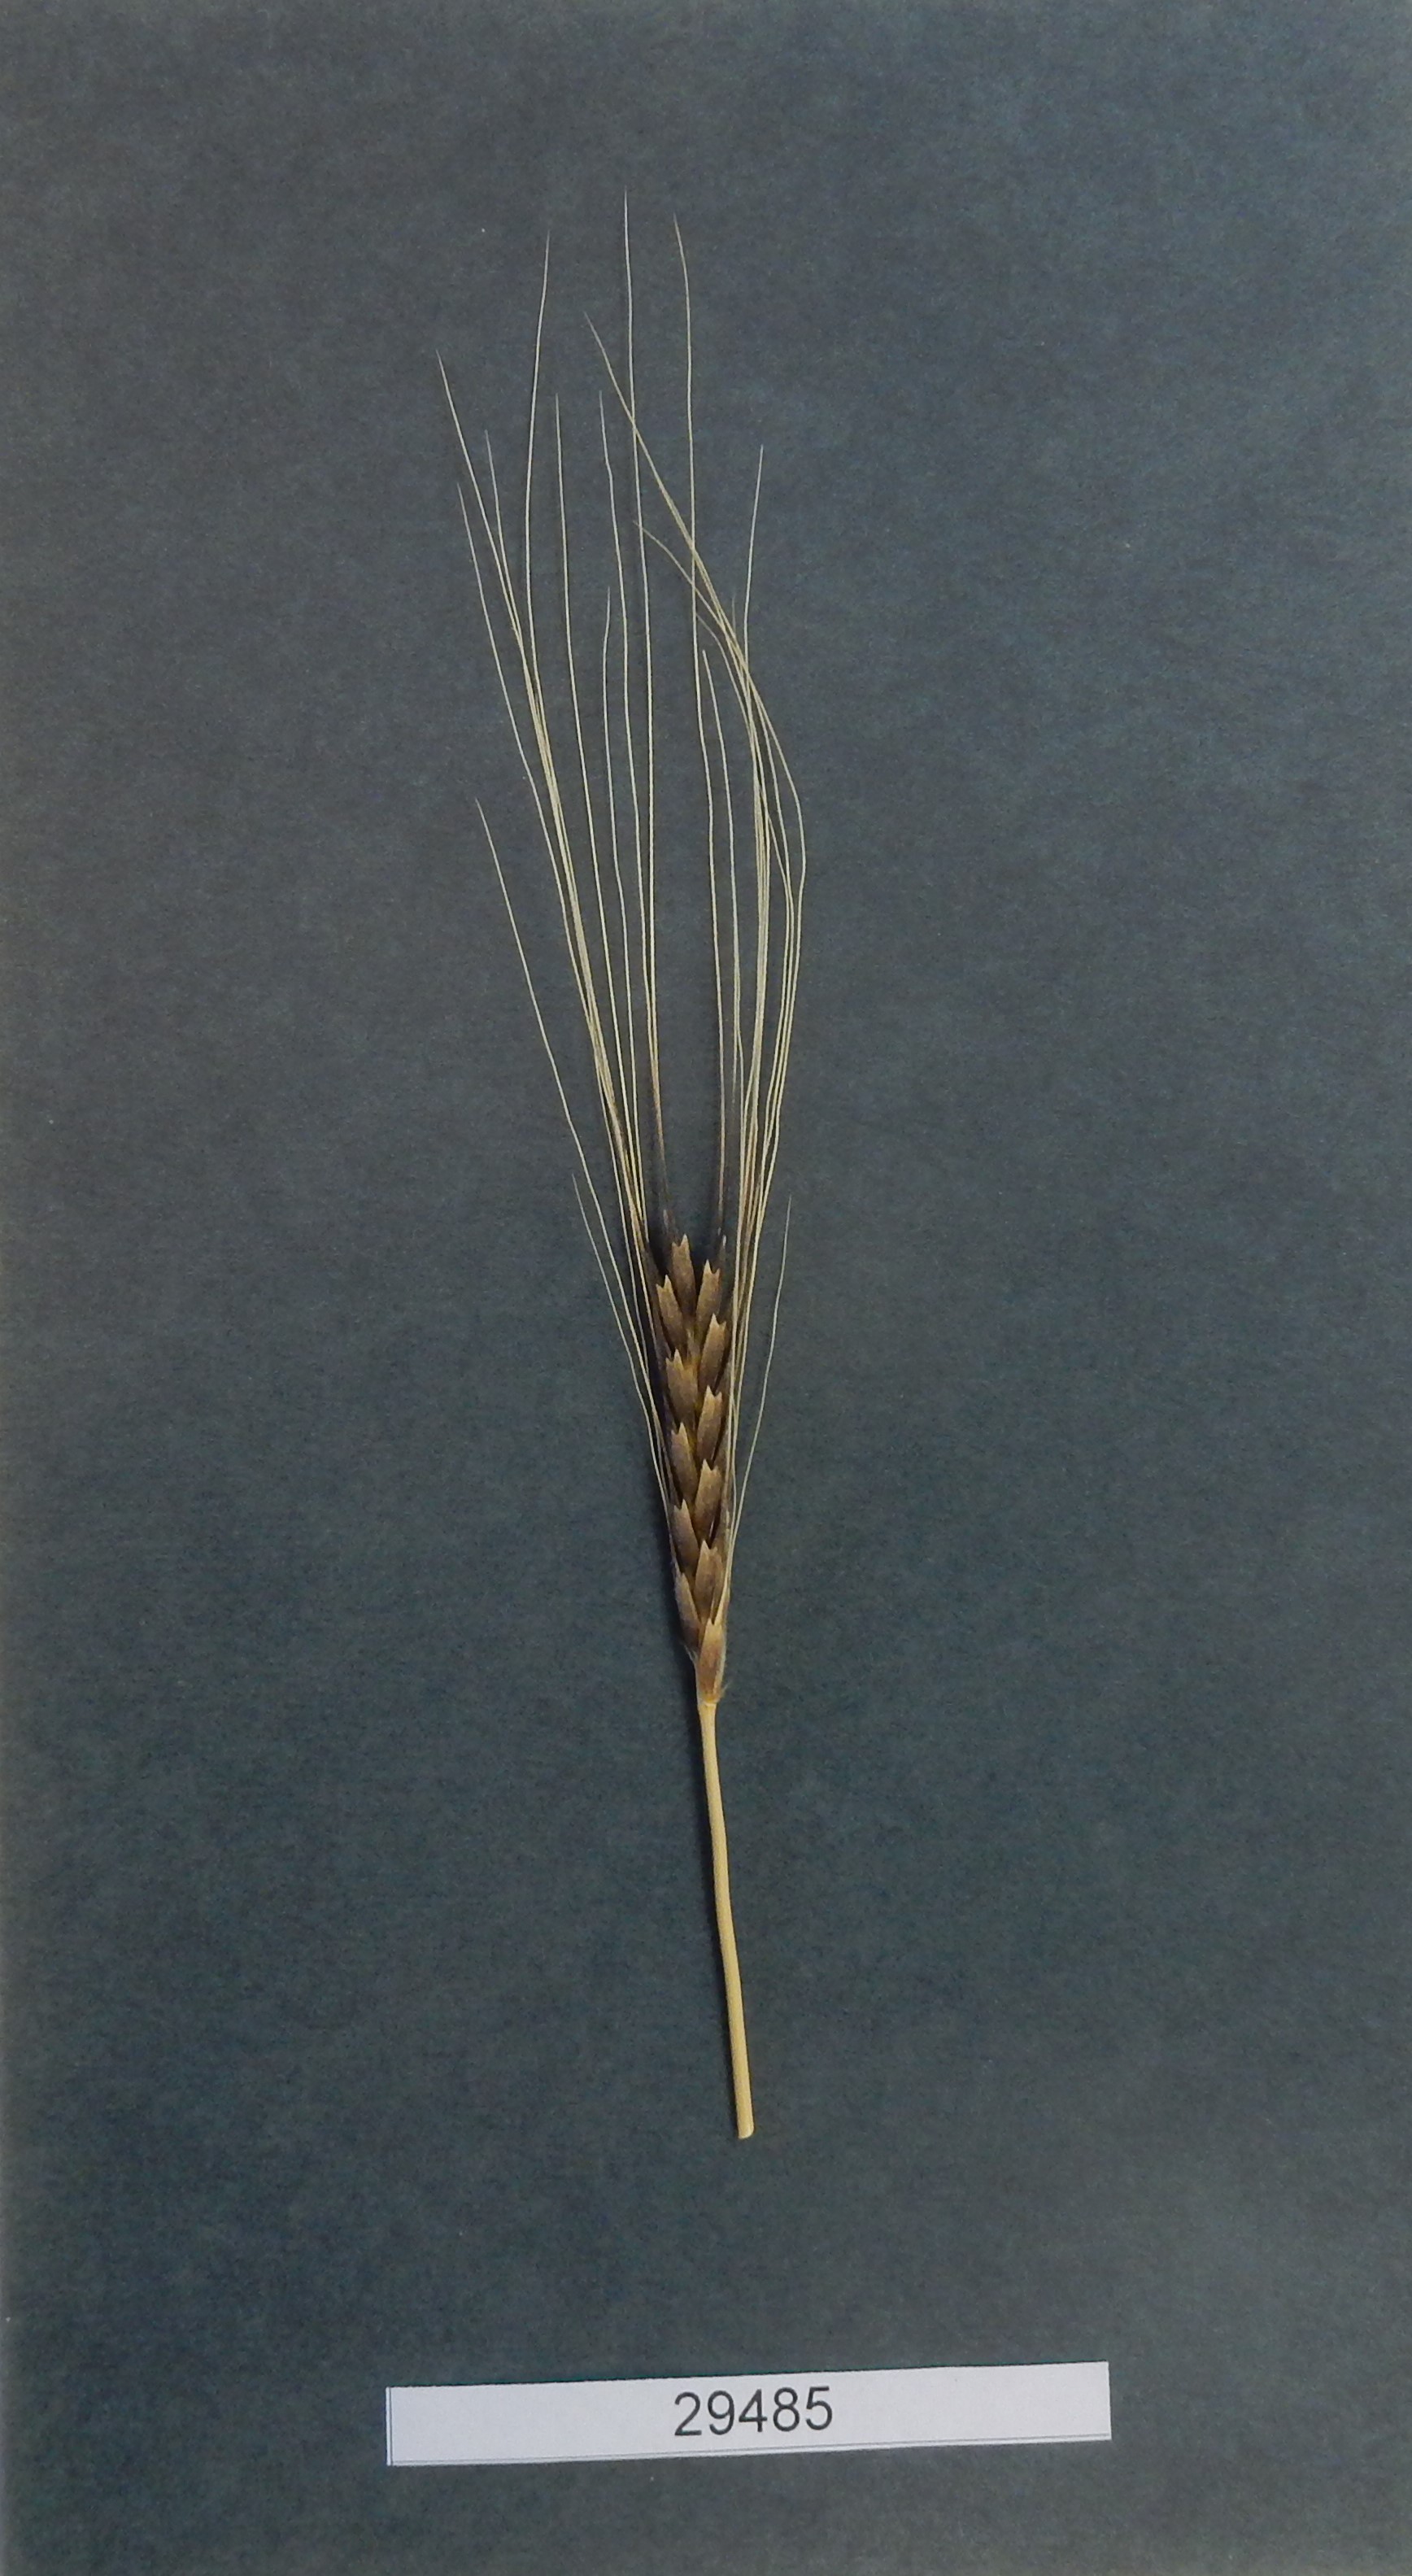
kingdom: Plantae
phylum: Tracheophyta
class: Liliopsida
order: Poales
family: Poaceae
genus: Triticum
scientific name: Triticum monococcum
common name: Wheat
